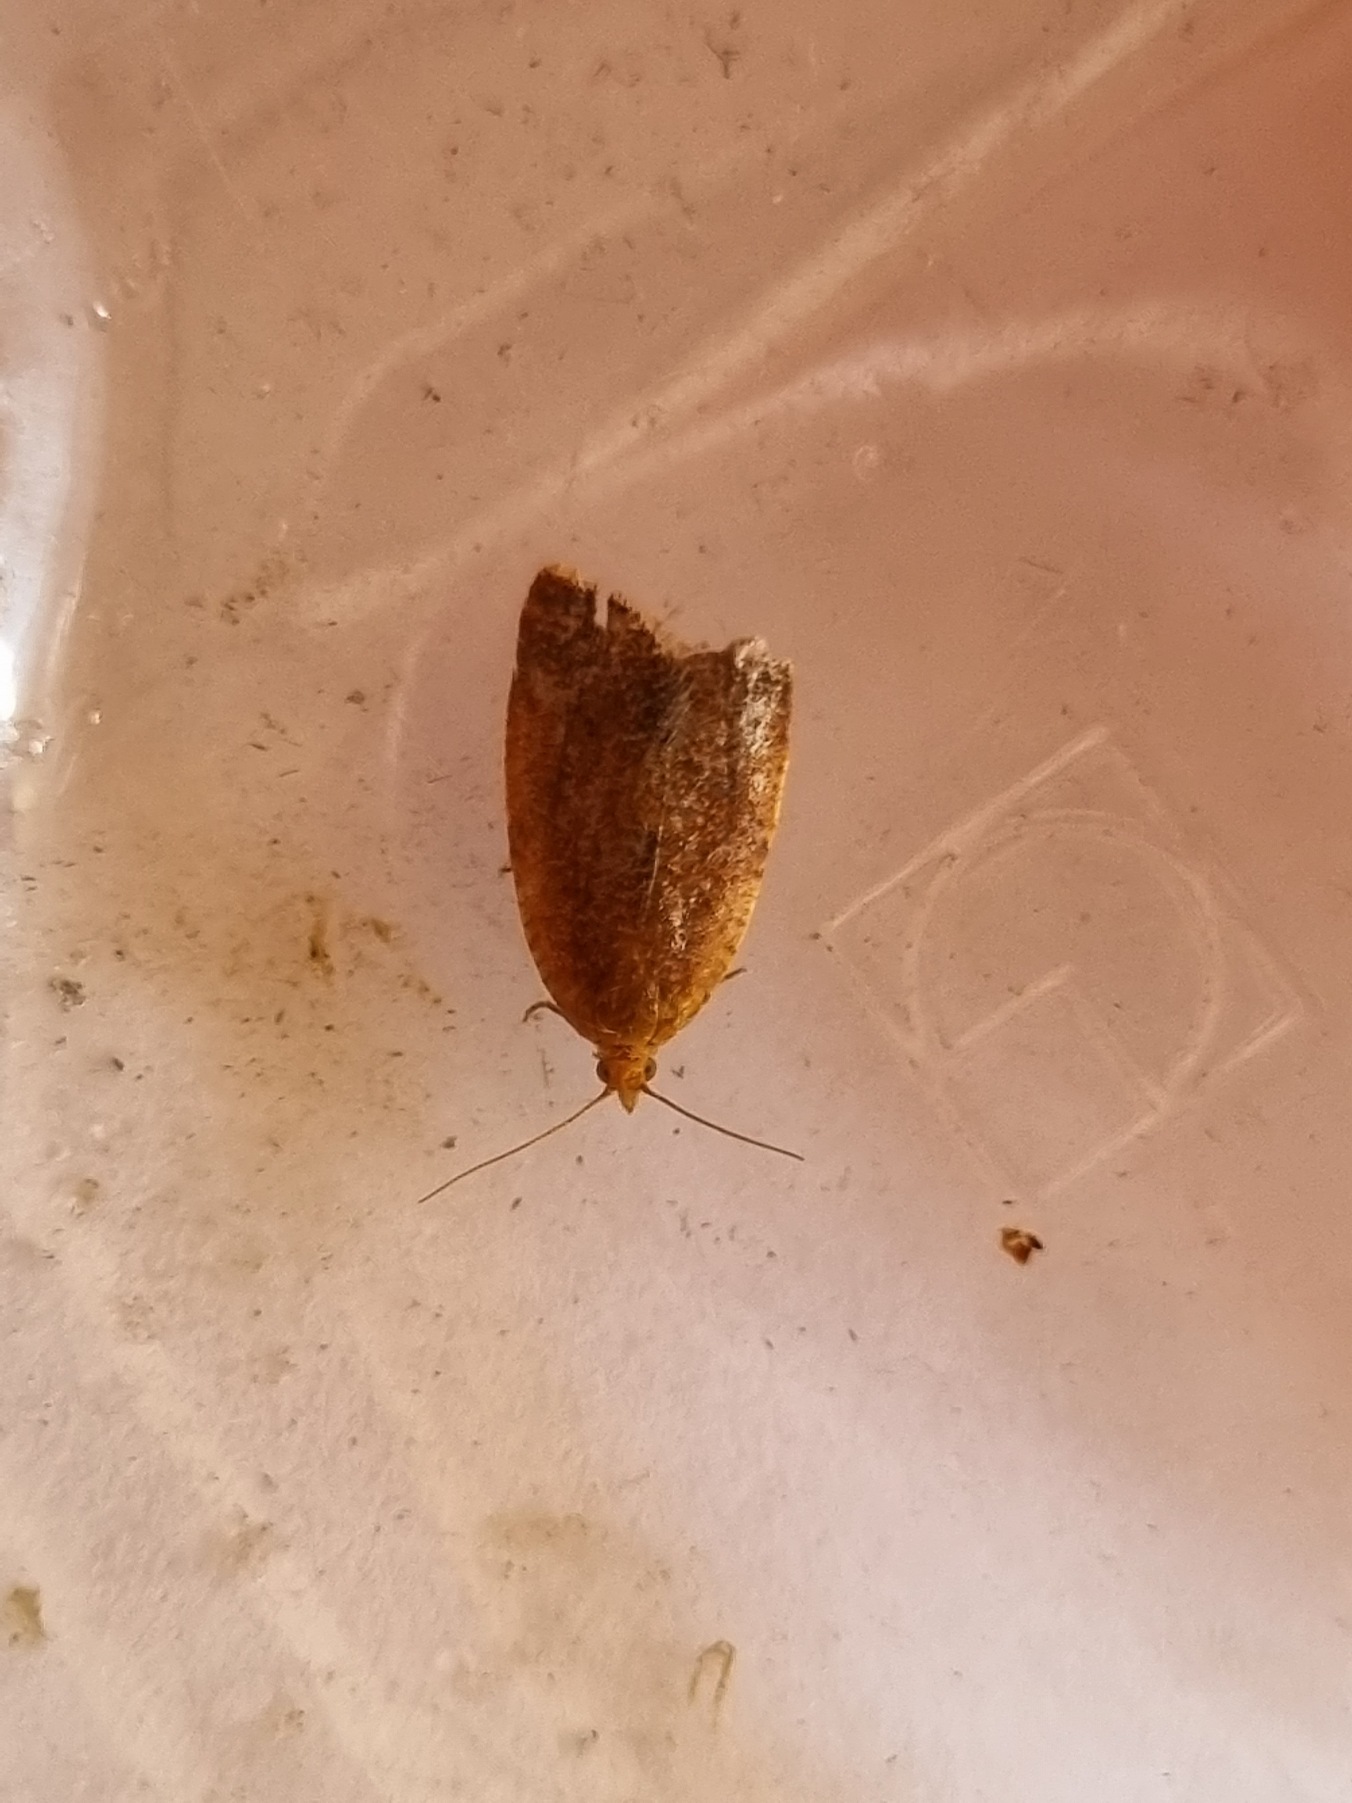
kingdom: Animalia
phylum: Arthropoda
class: Insecta
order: Lepidoptera
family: Tortricidae
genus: Clepsis
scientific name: Clepsis consimilana
